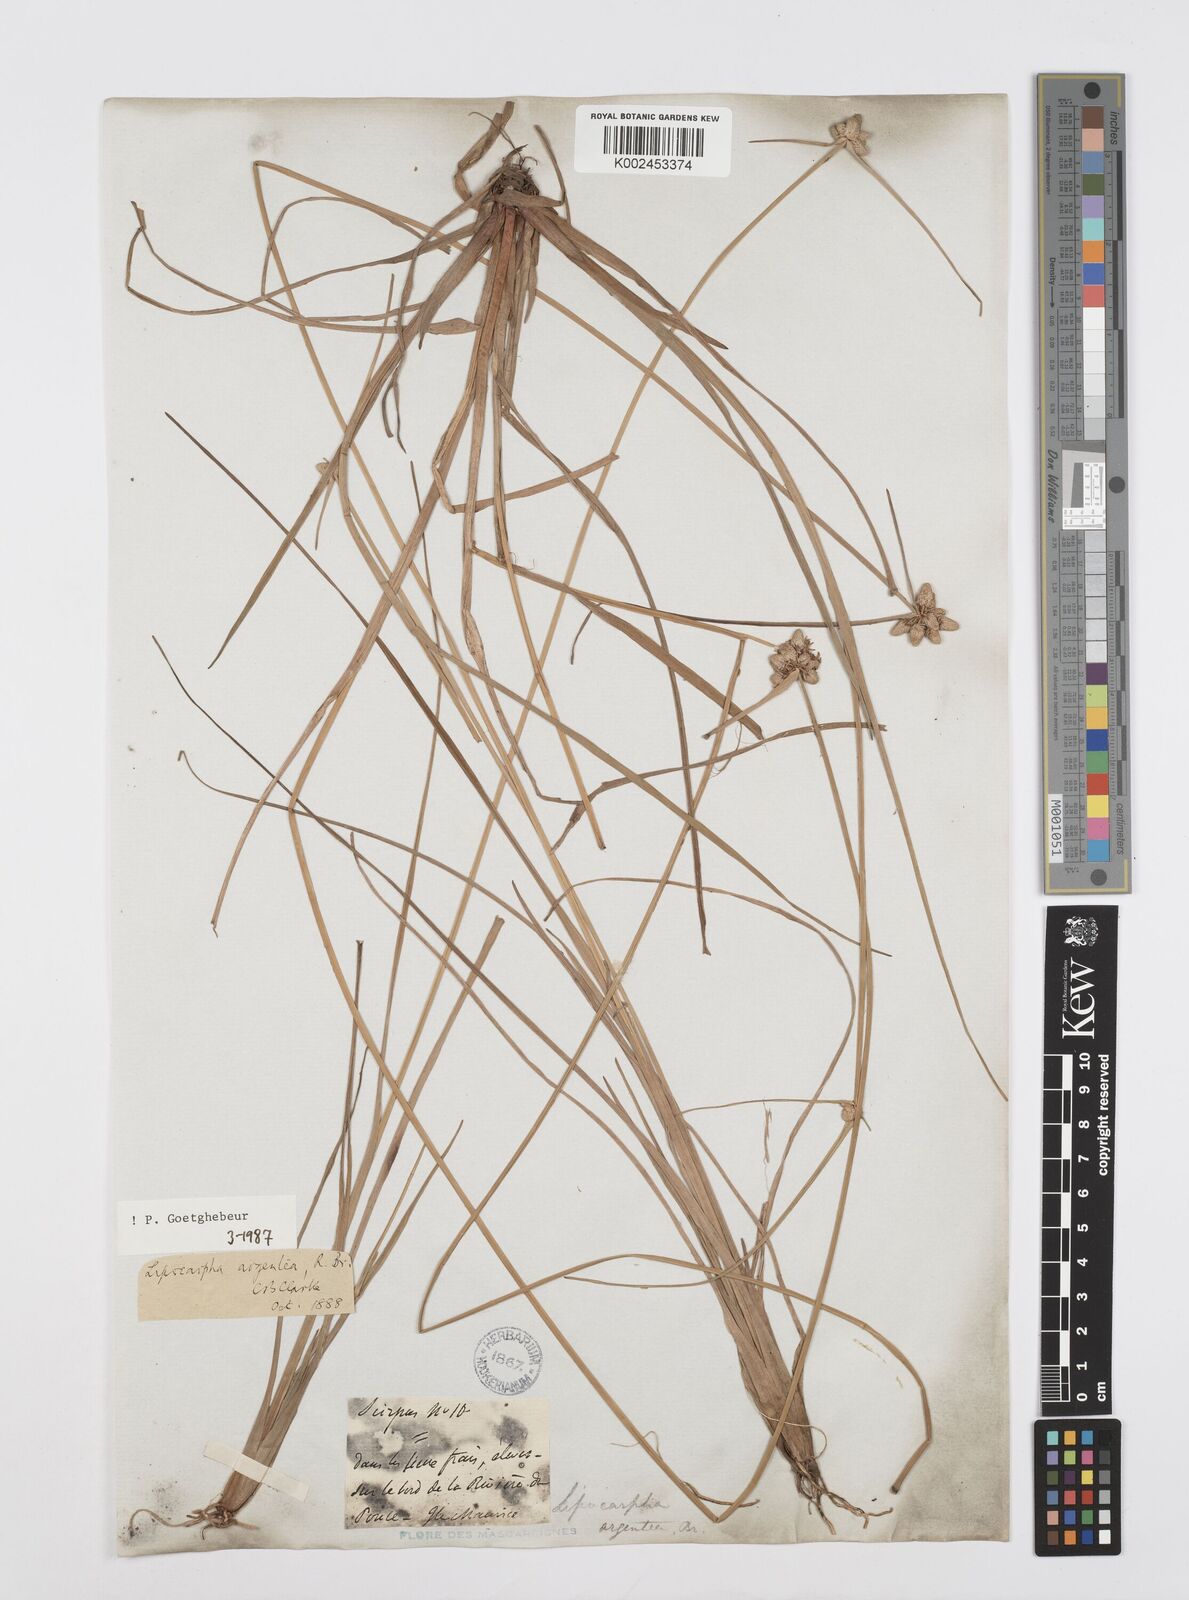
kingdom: Plantae
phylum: Tracheophyta
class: Liliopsida
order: Poales
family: Cyperaceae
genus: Cyperus
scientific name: Cyperus
